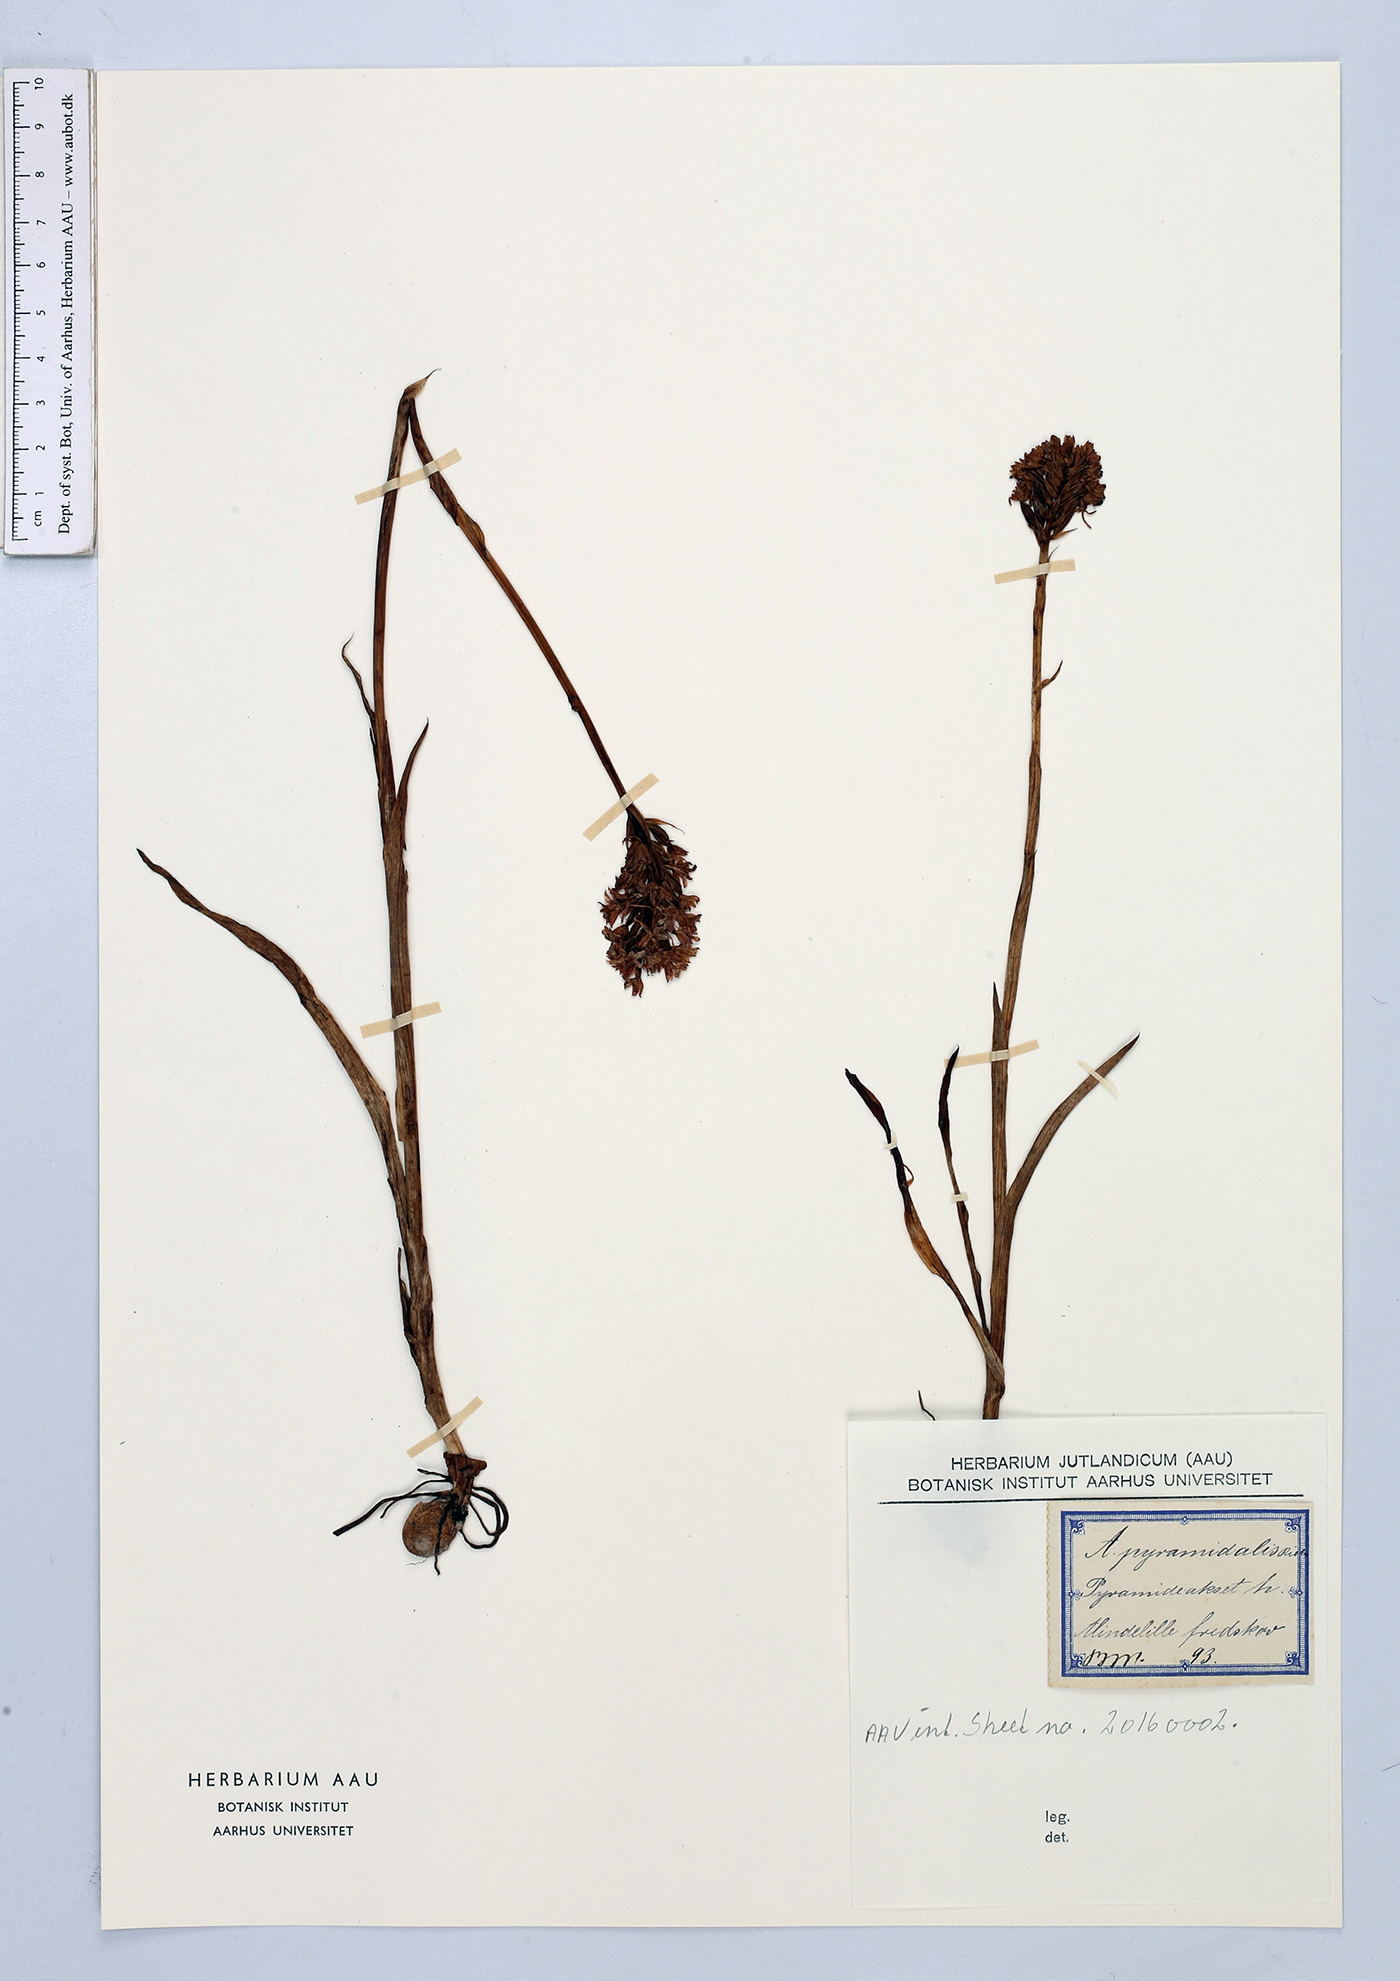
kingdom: Plantae
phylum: Tracheophyta
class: Liliopsida
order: Asparagales
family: Orchidaceae
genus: Anacamptis
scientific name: Anacamptis pyramidalis
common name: Pyramidal orchid
